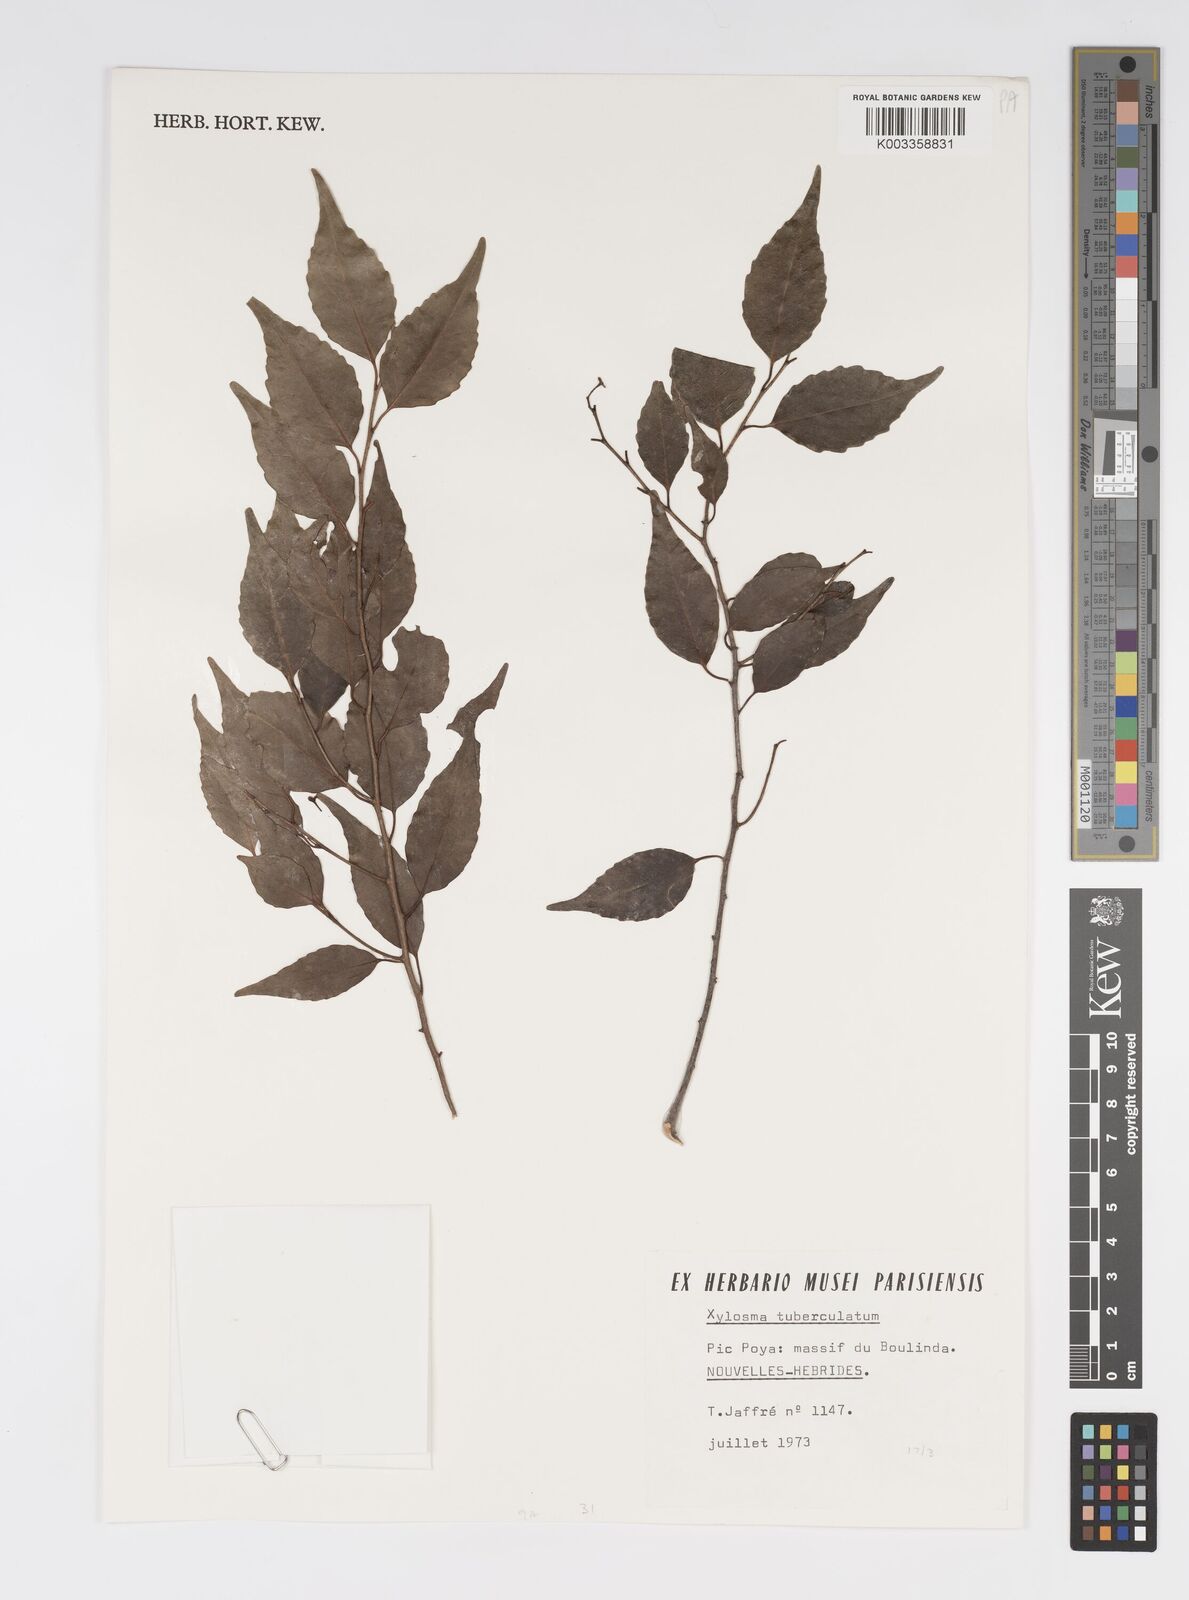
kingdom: Plantae
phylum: Tracheophyta
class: Magnoliopsida
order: Malpighiales
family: Salicaceae
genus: Xylosma
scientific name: Xylosma
